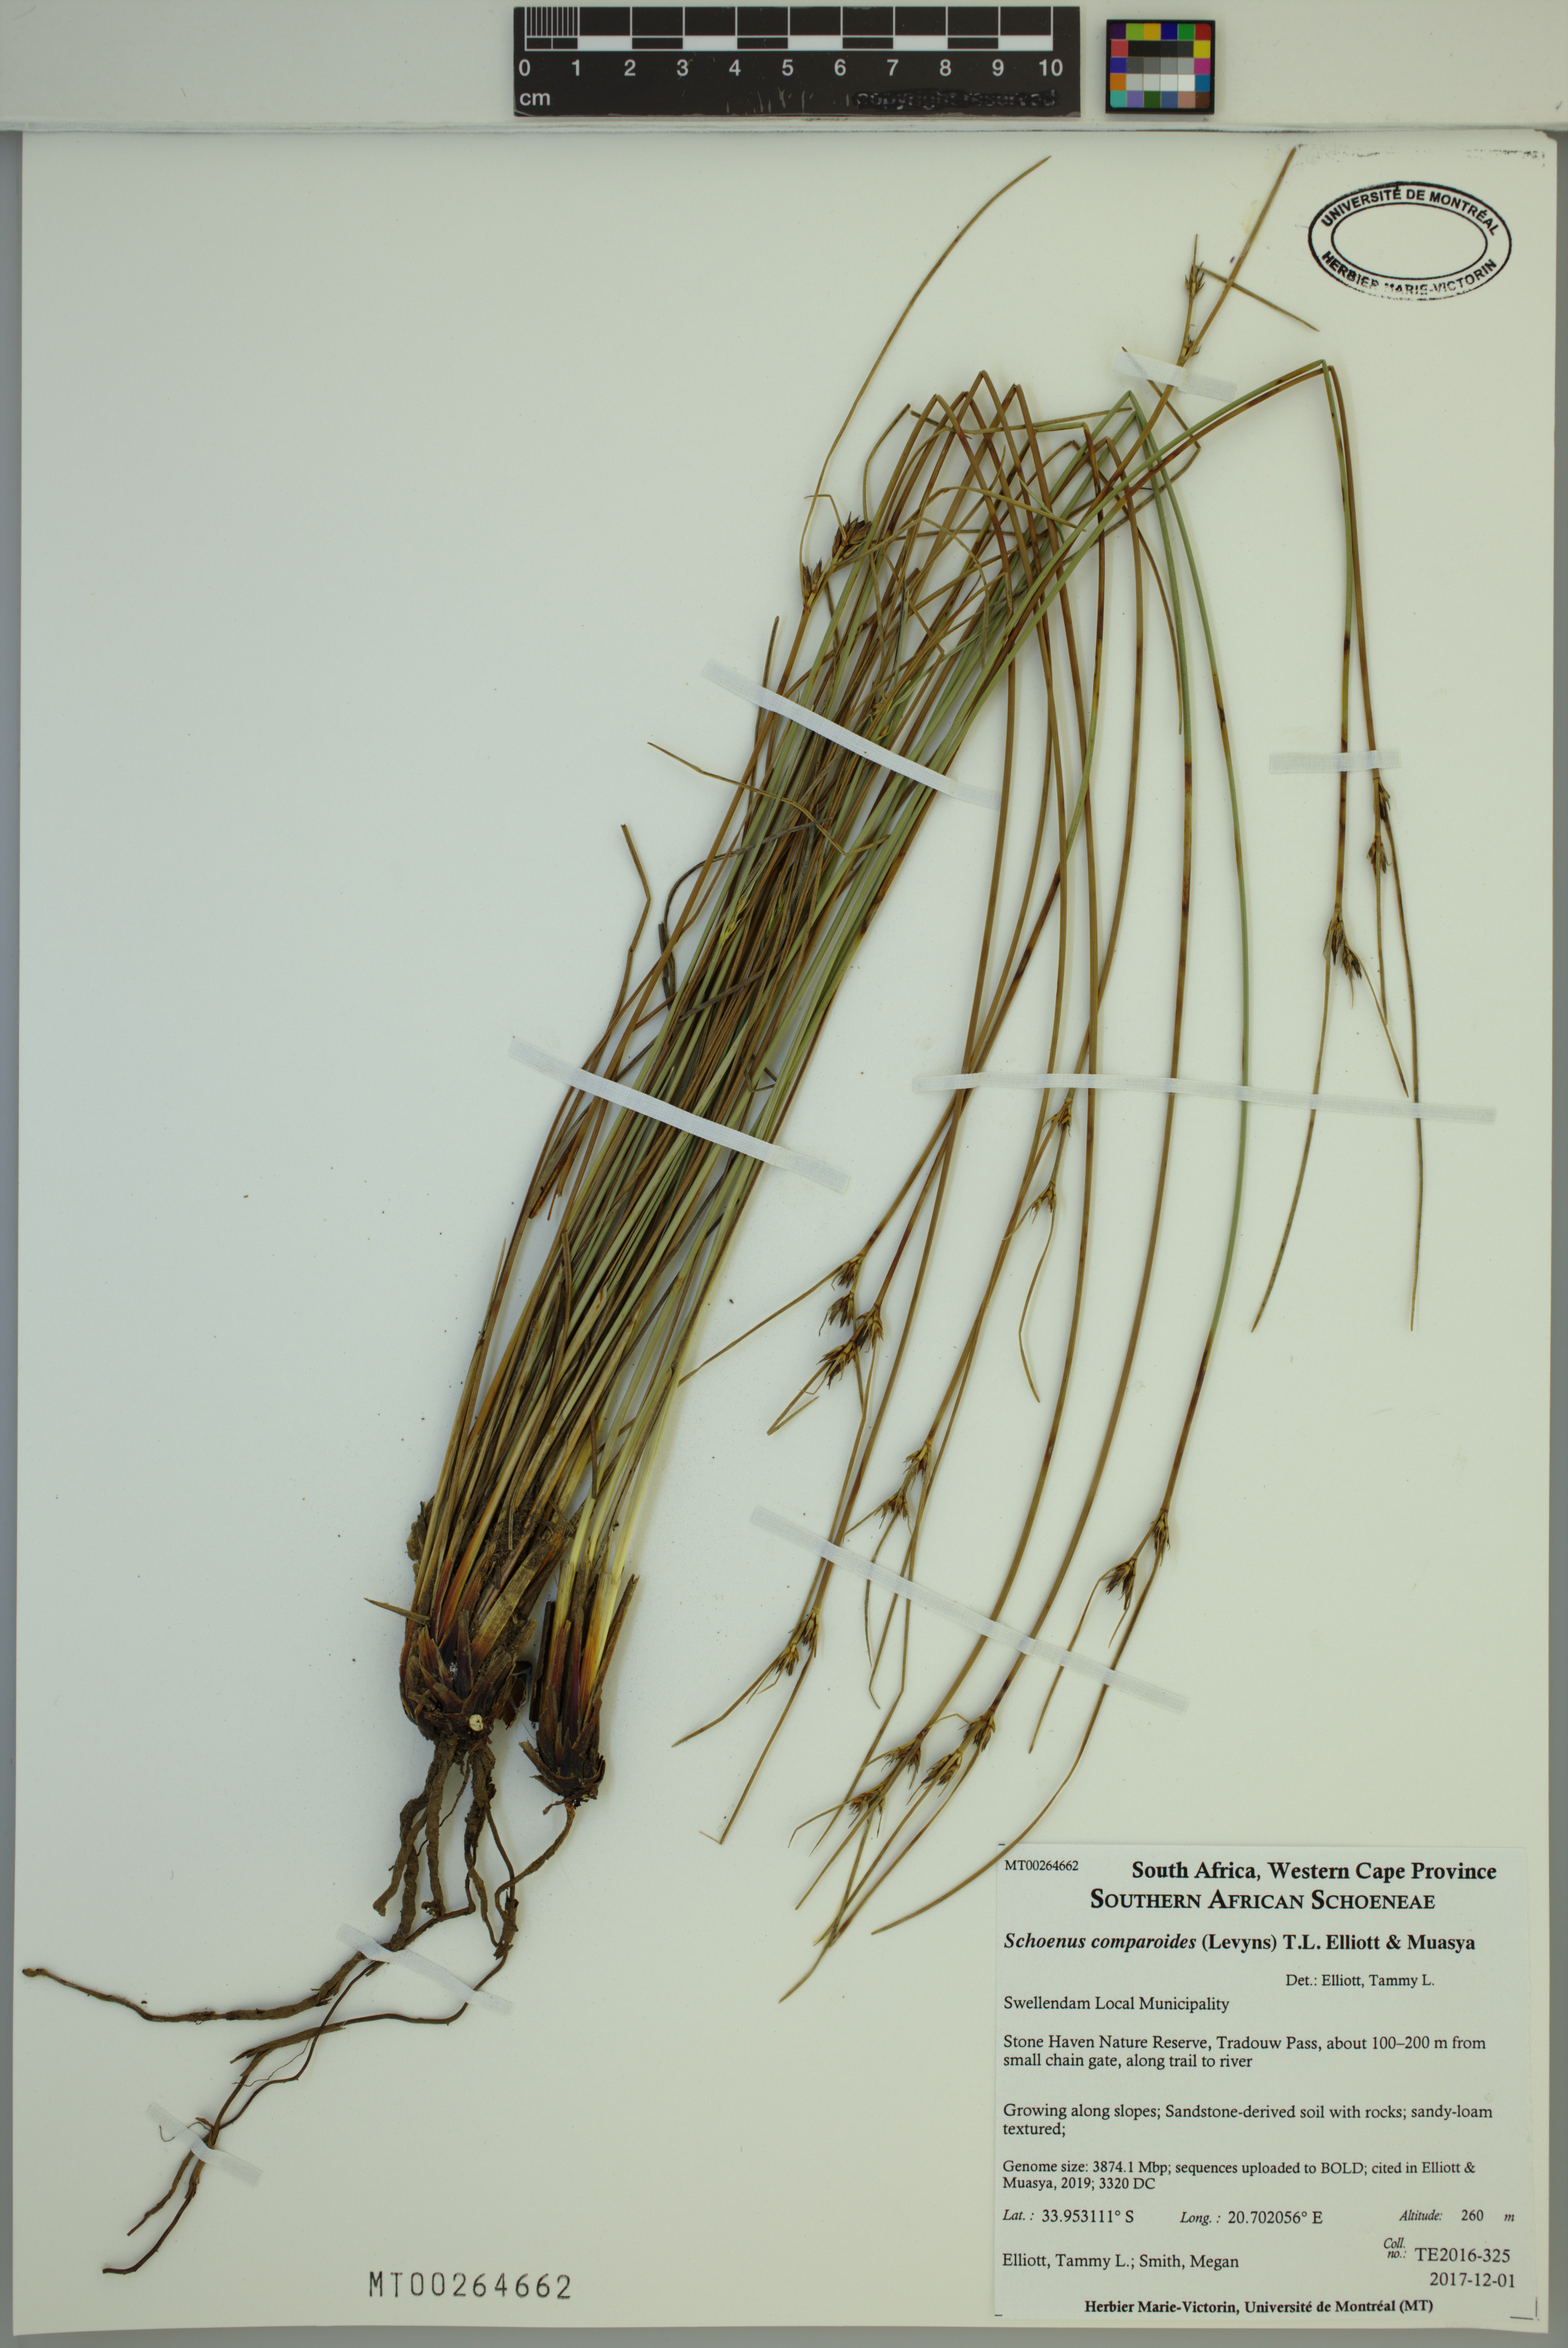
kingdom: Plantae
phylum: Tracheophyta
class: Liliopsida
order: Poales
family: Cyperaceae
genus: Schoenus
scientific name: Schoenus comparoides
